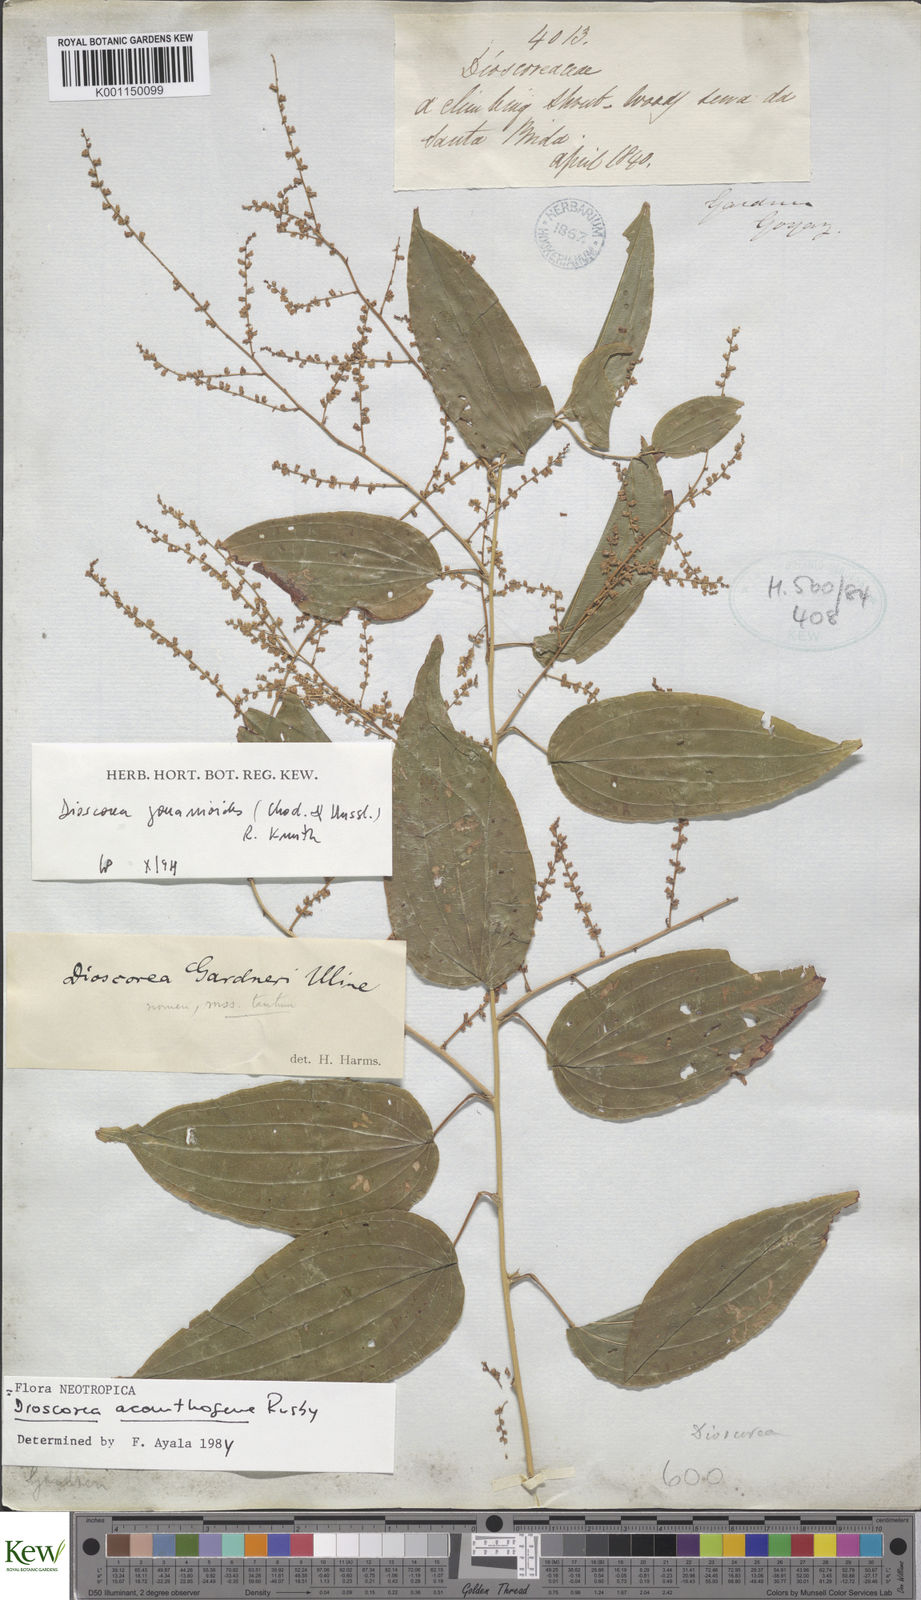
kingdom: Plantae
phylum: Tracheophyta
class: Liliopsida
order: Dioscoreales
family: Dioscoreaceae
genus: Dioscorea
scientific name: Dioscorea acanthogene
